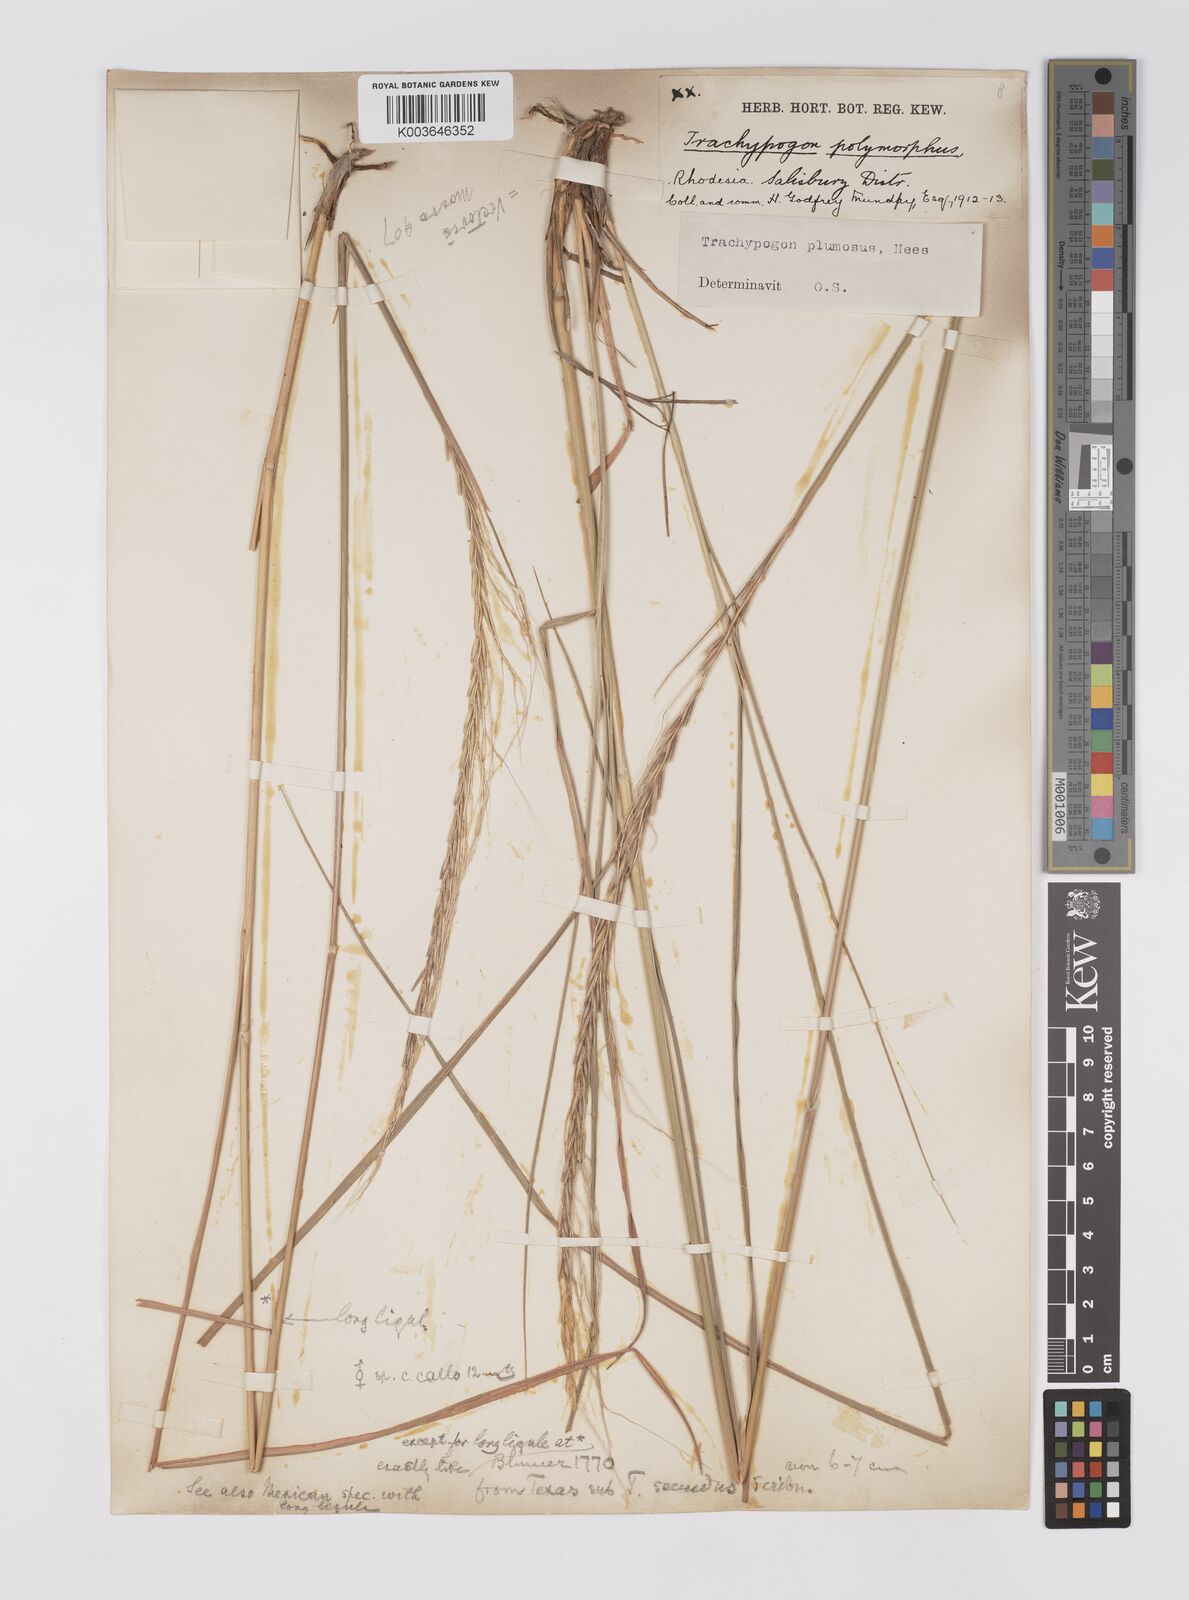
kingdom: Plantae
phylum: Tracheophyta
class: Liliopsida
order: Poales
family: Poaceae
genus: Trachypogon
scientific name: Trachypogon spicatus
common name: Crinkle-awn
